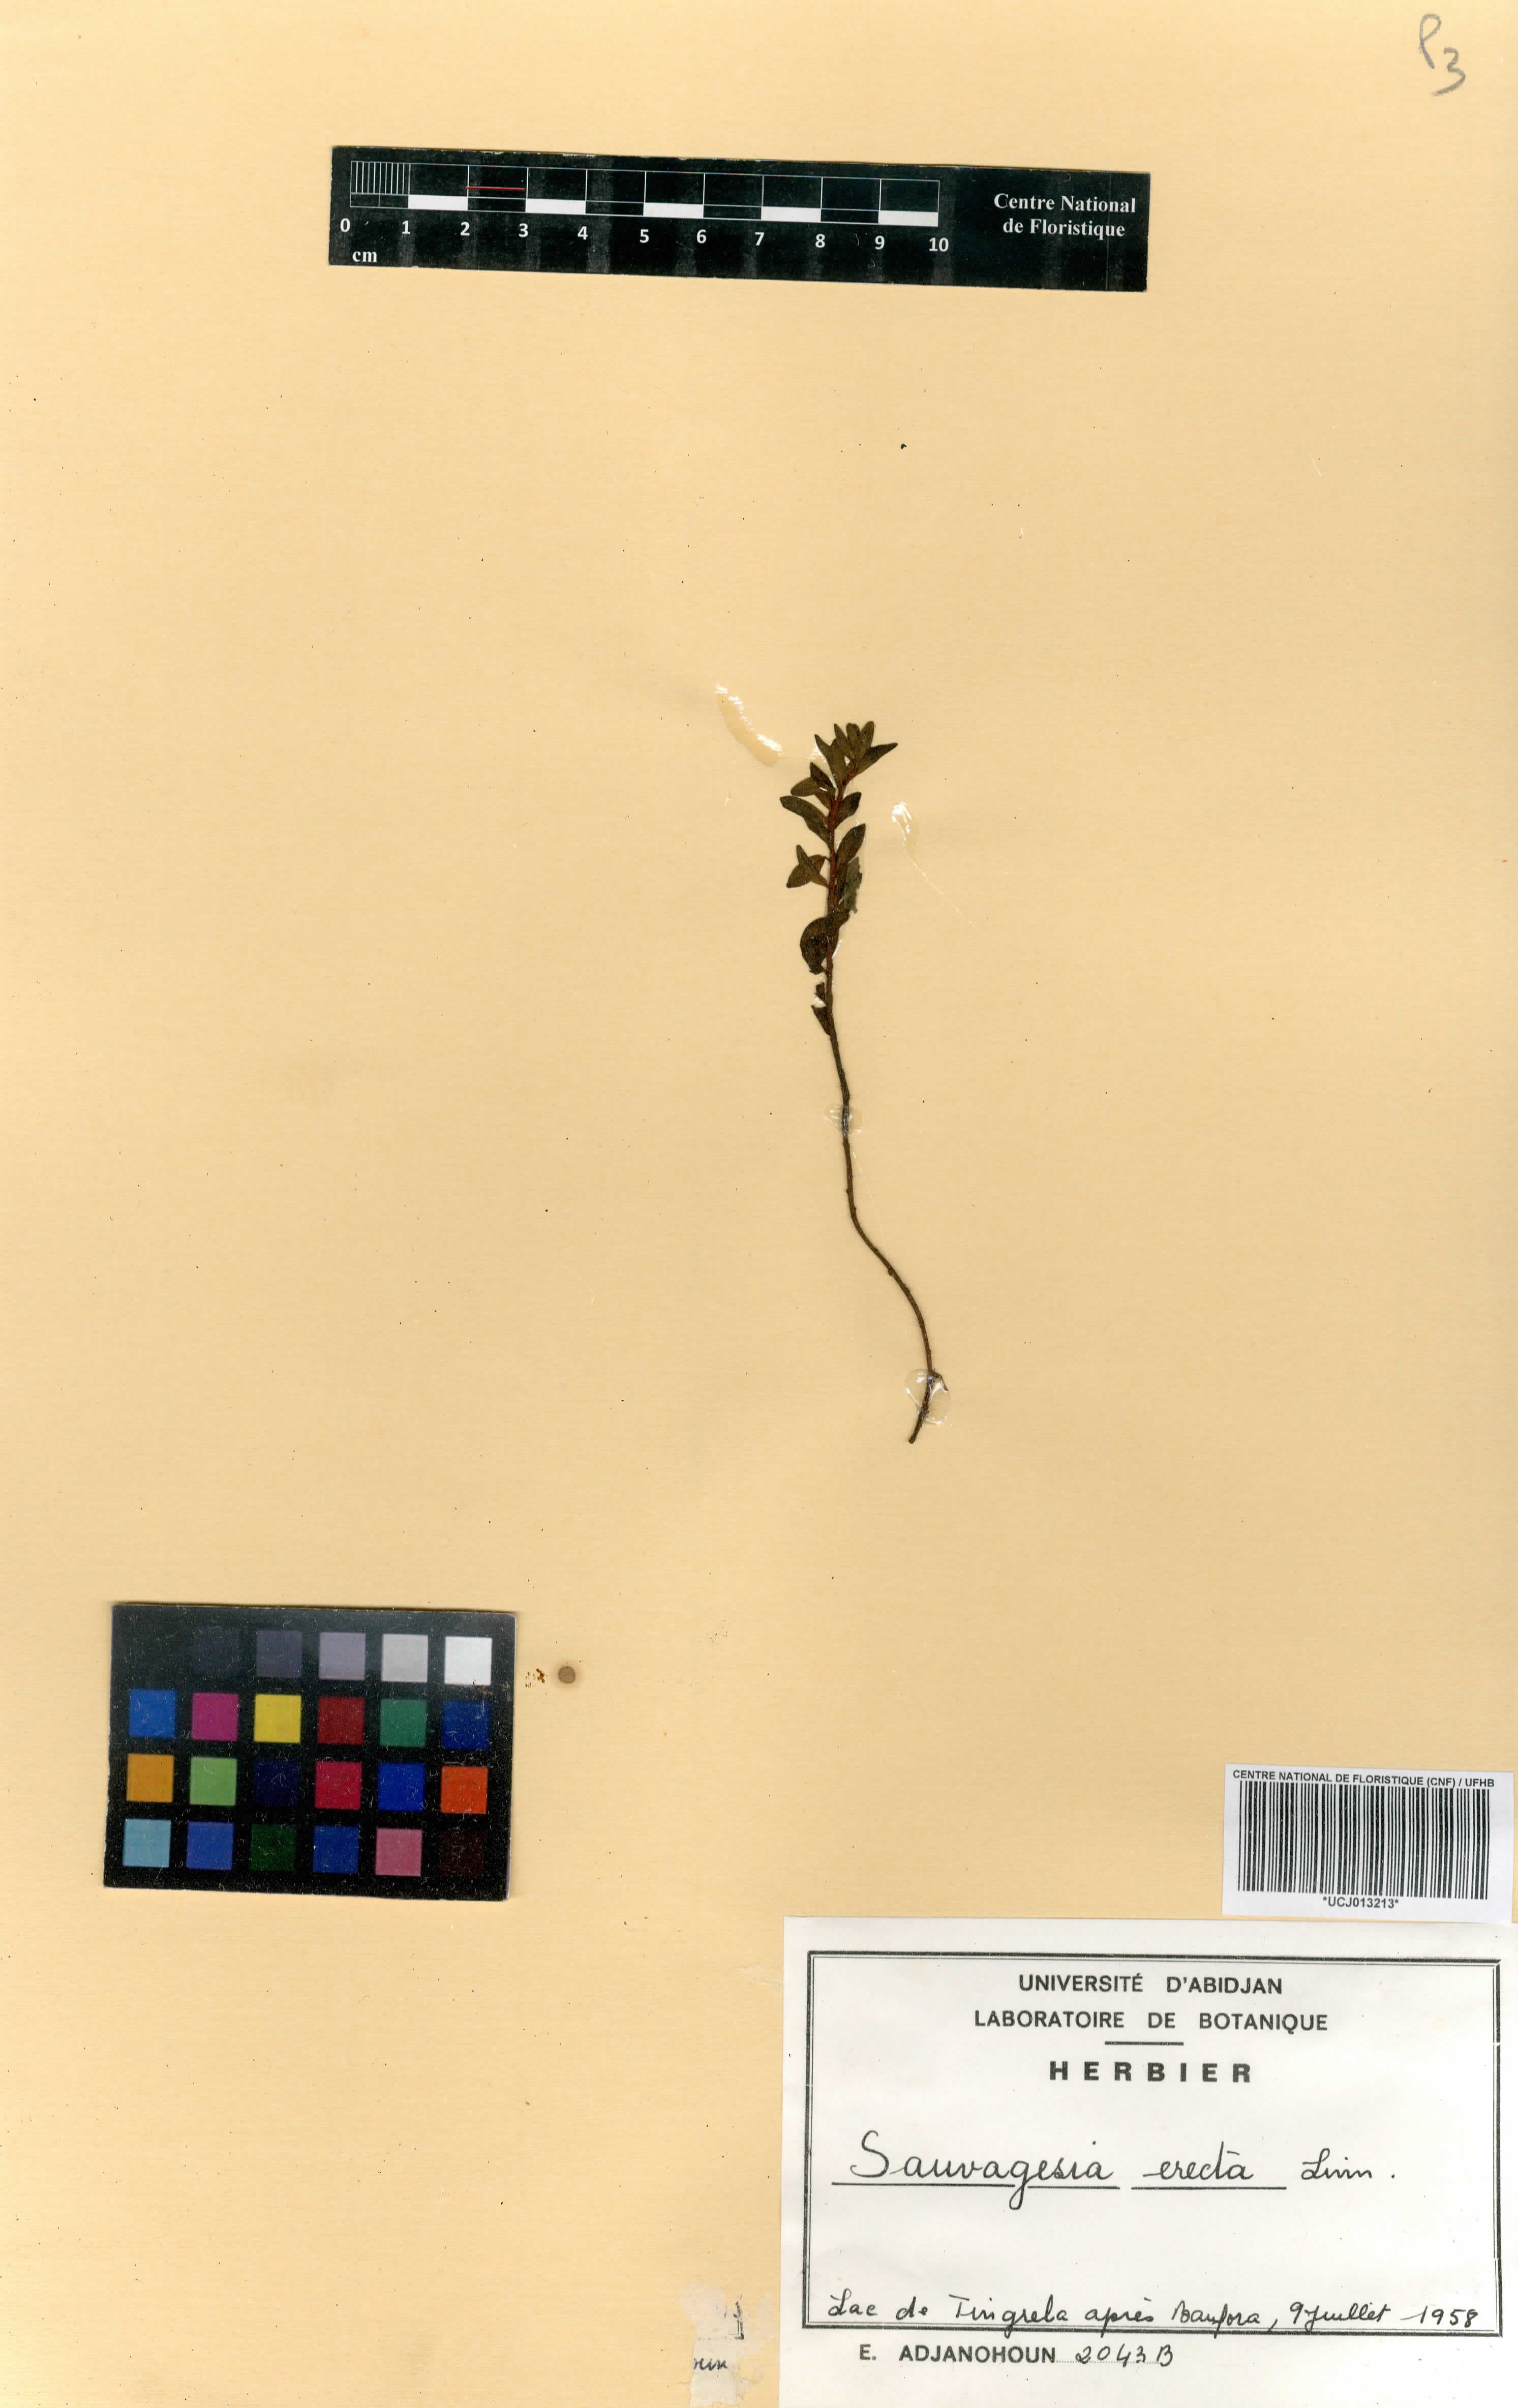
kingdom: Plantae
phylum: Tracheophyta
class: Magnoliopsida
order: Malpighiales
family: Ochnaceae
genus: Sauvagesia
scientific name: Sauvagesia erecta
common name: Creole tea
